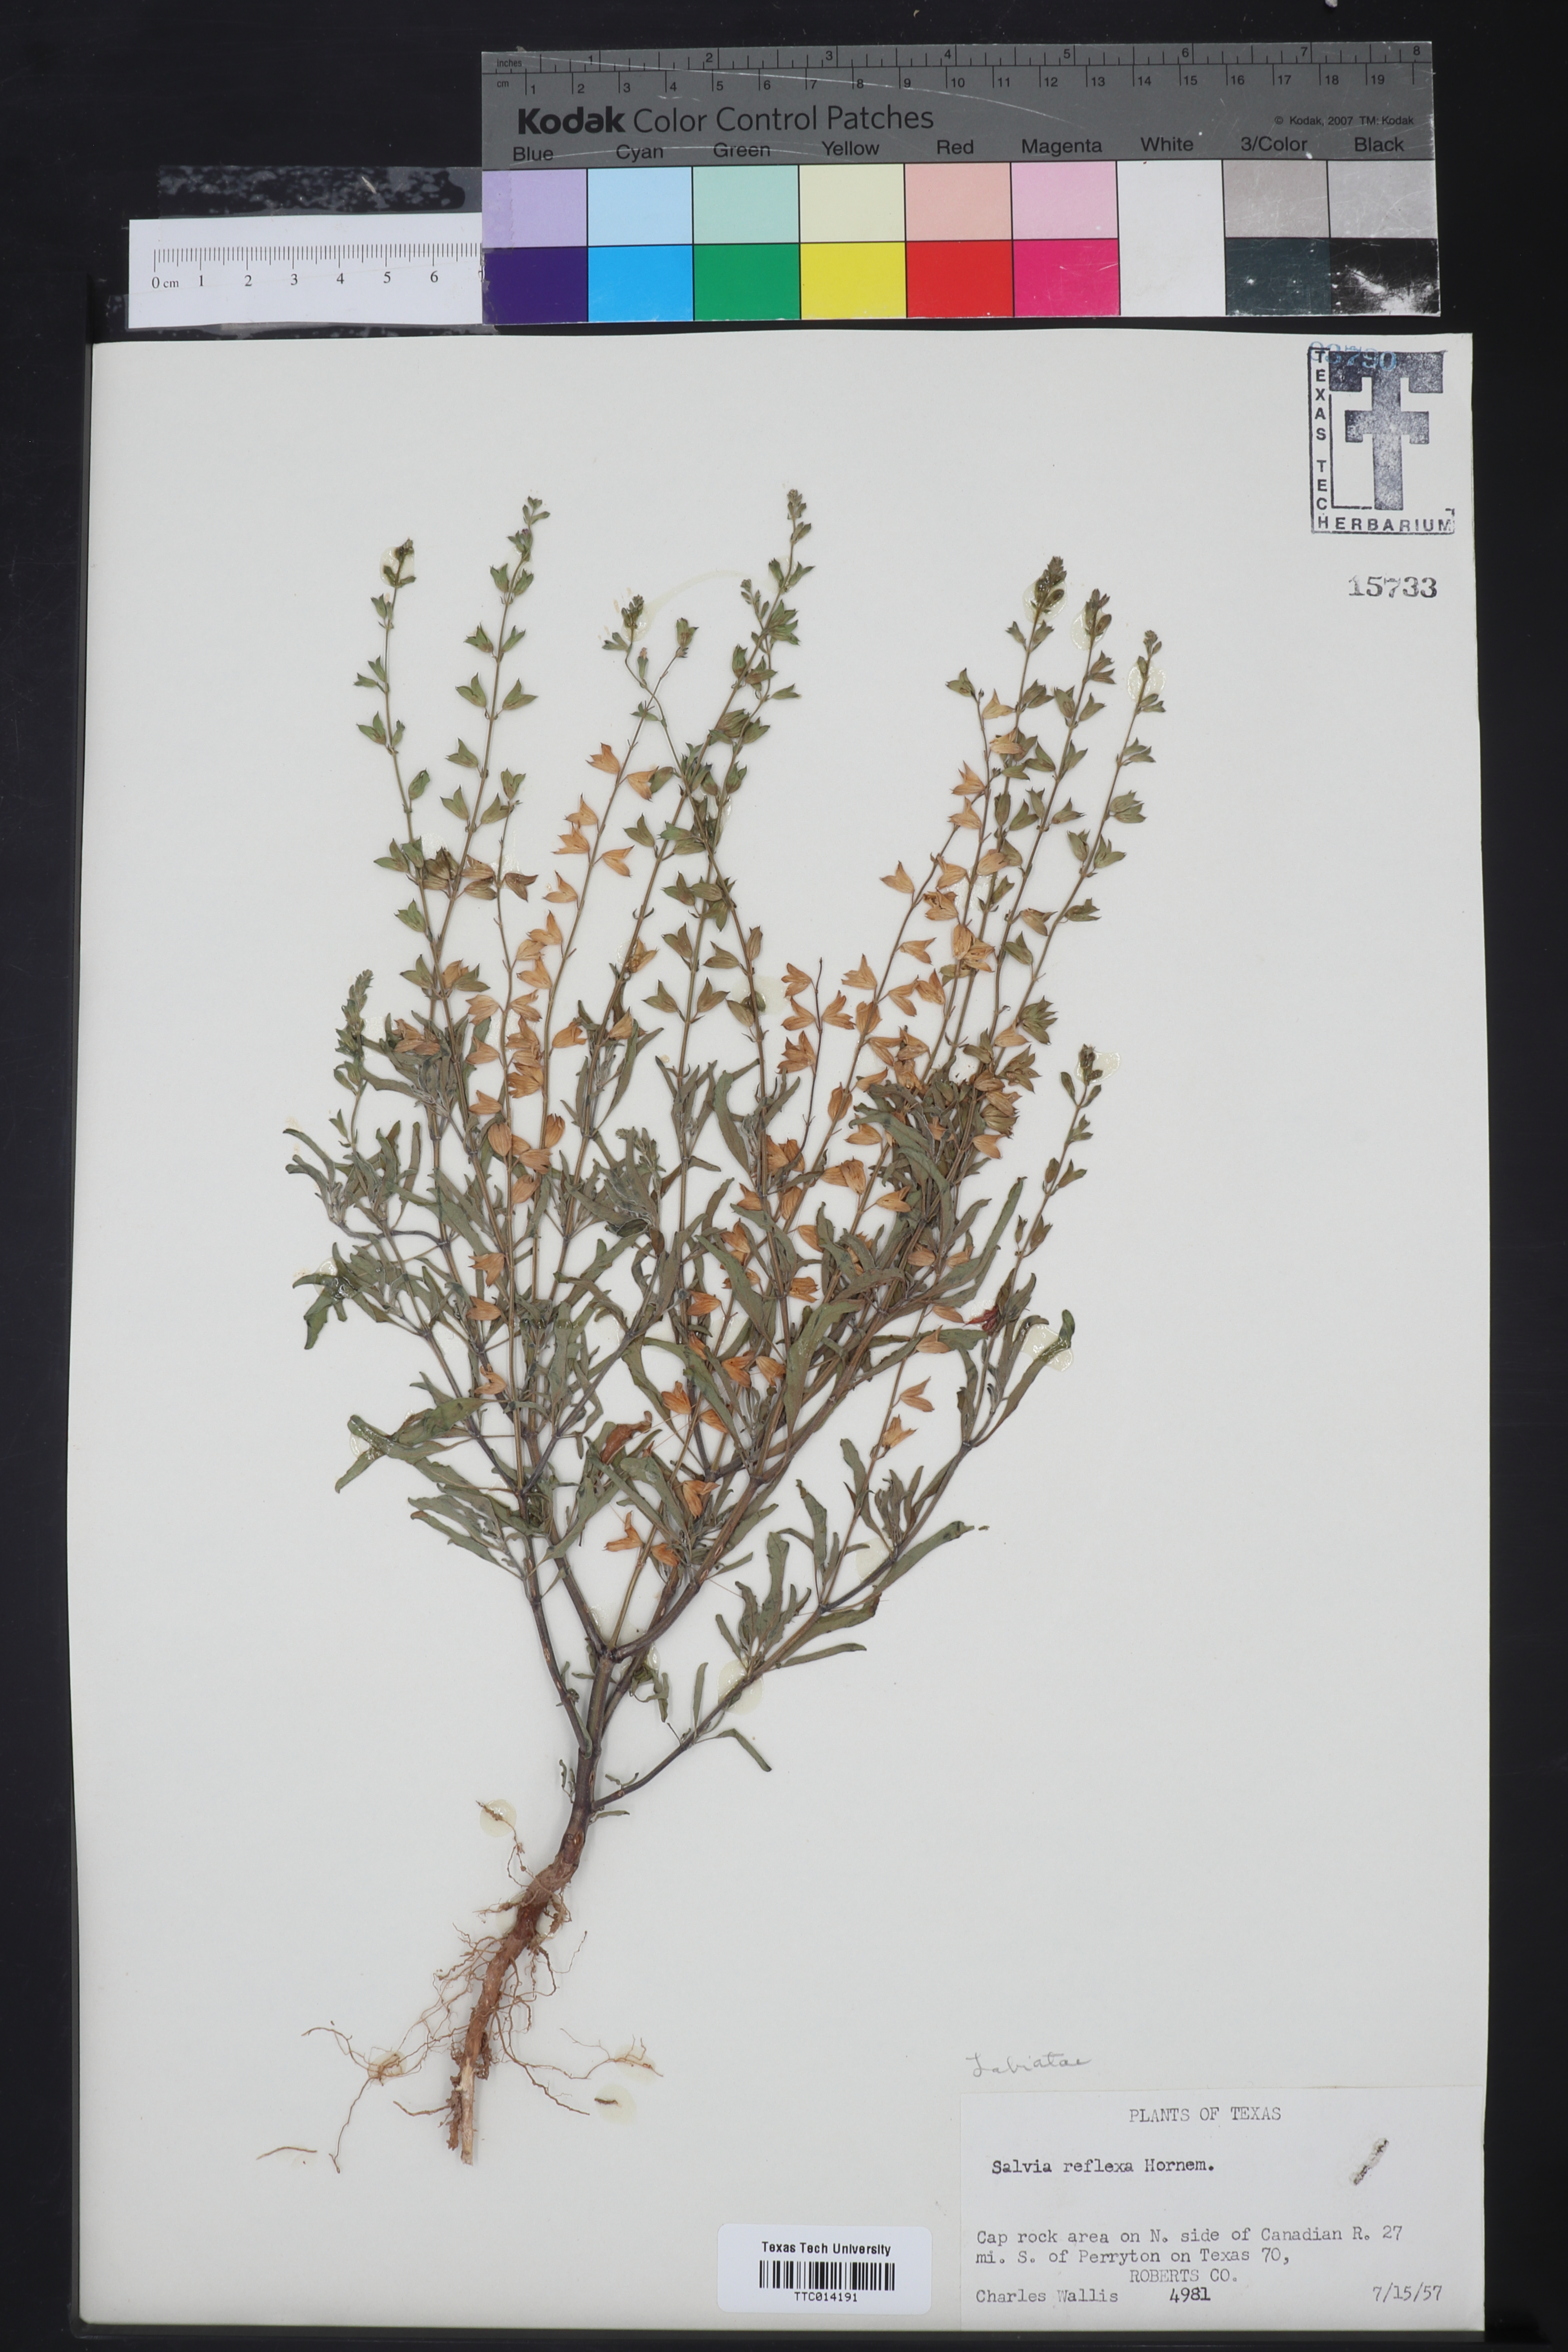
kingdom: Plantae
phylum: Tracheophyta
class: Magnoliopsida
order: Lamiales
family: Lamiaceae
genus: Salvia
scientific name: Salvia reflexa
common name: Mintweed
